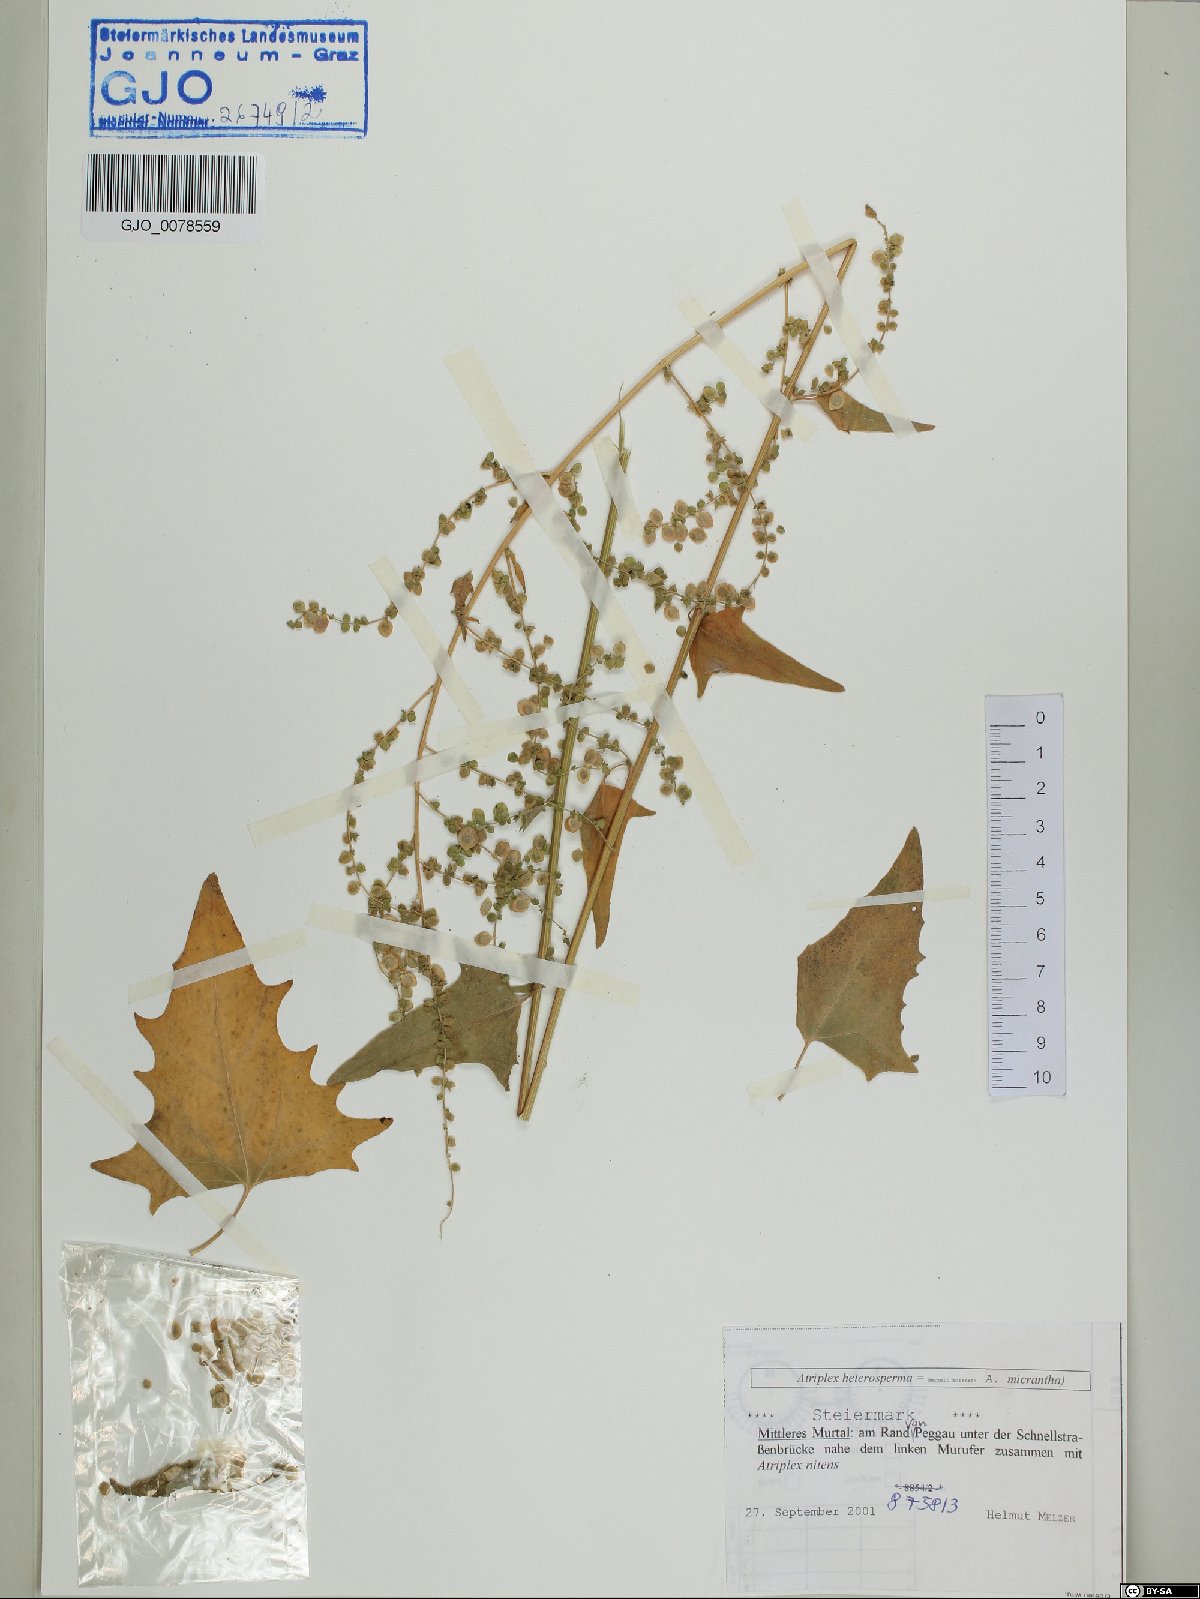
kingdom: Plantae
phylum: Tracheophyta
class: Magnoliopsida
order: Caryophyllales
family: Amaranthaceae
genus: Atriplex
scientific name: Atriplex micrantha
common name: Twoscale saltbush
